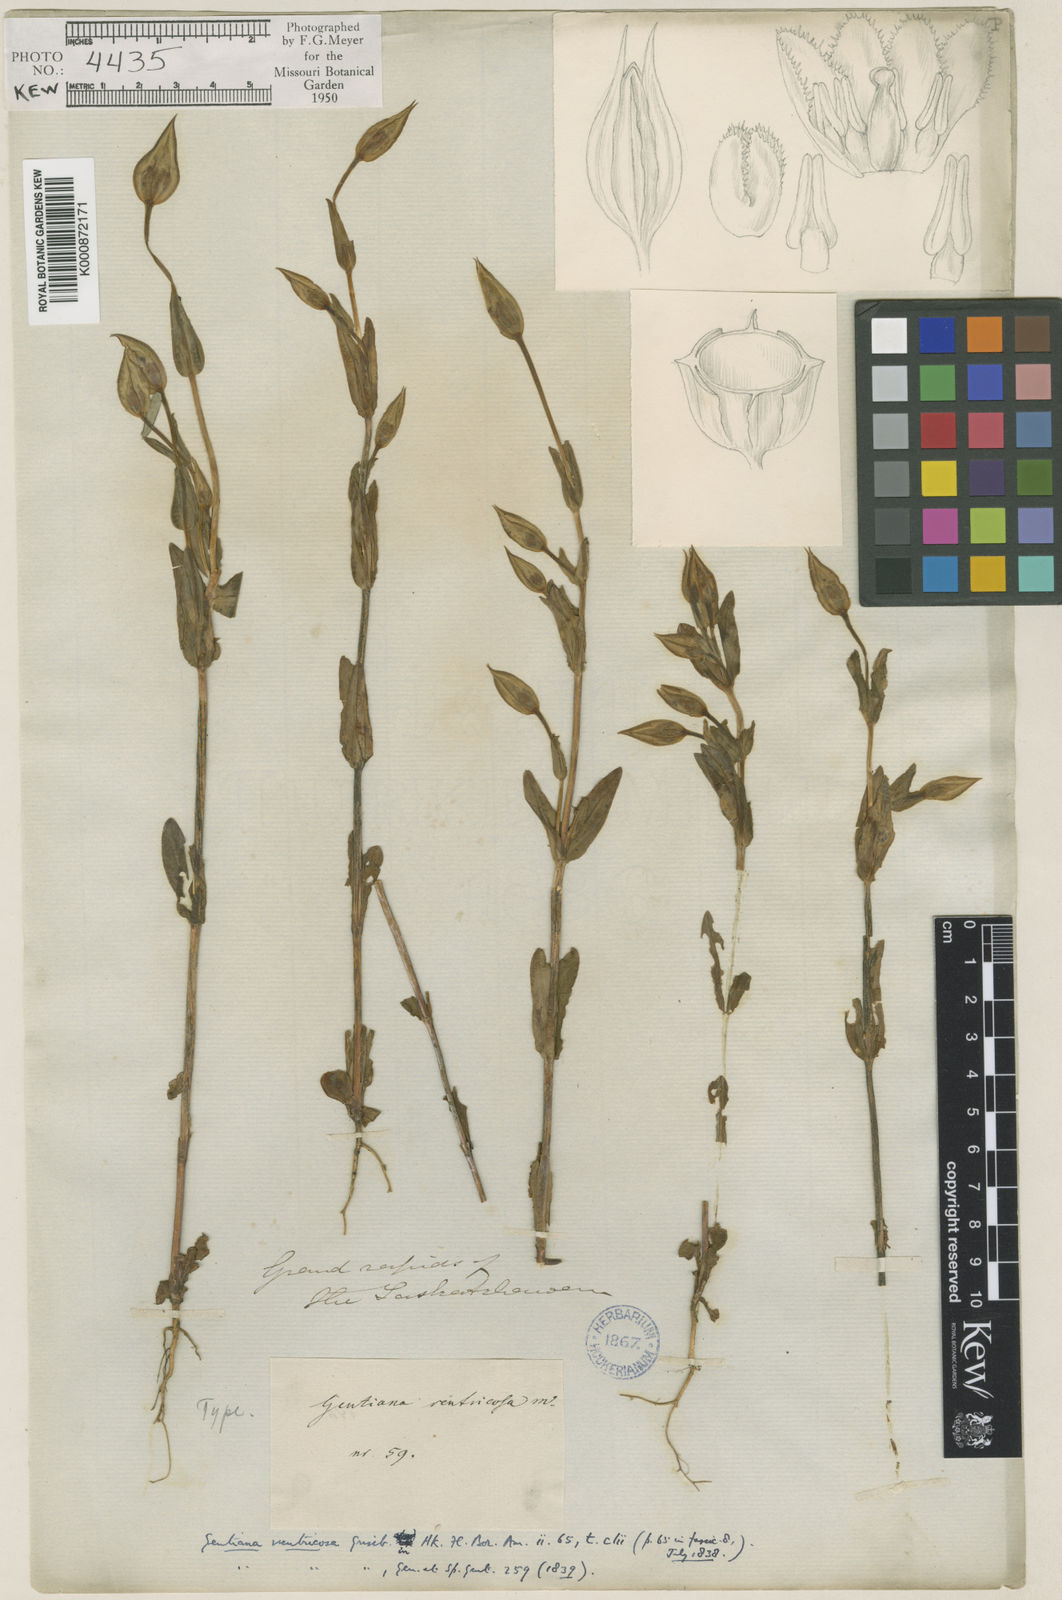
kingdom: Plantae
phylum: Tracheophyta
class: Magnoliopsida
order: Gentianales
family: Gentianaceae
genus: Gentianopsis
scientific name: Gentianopsis crinita
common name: Fringed-gentian
